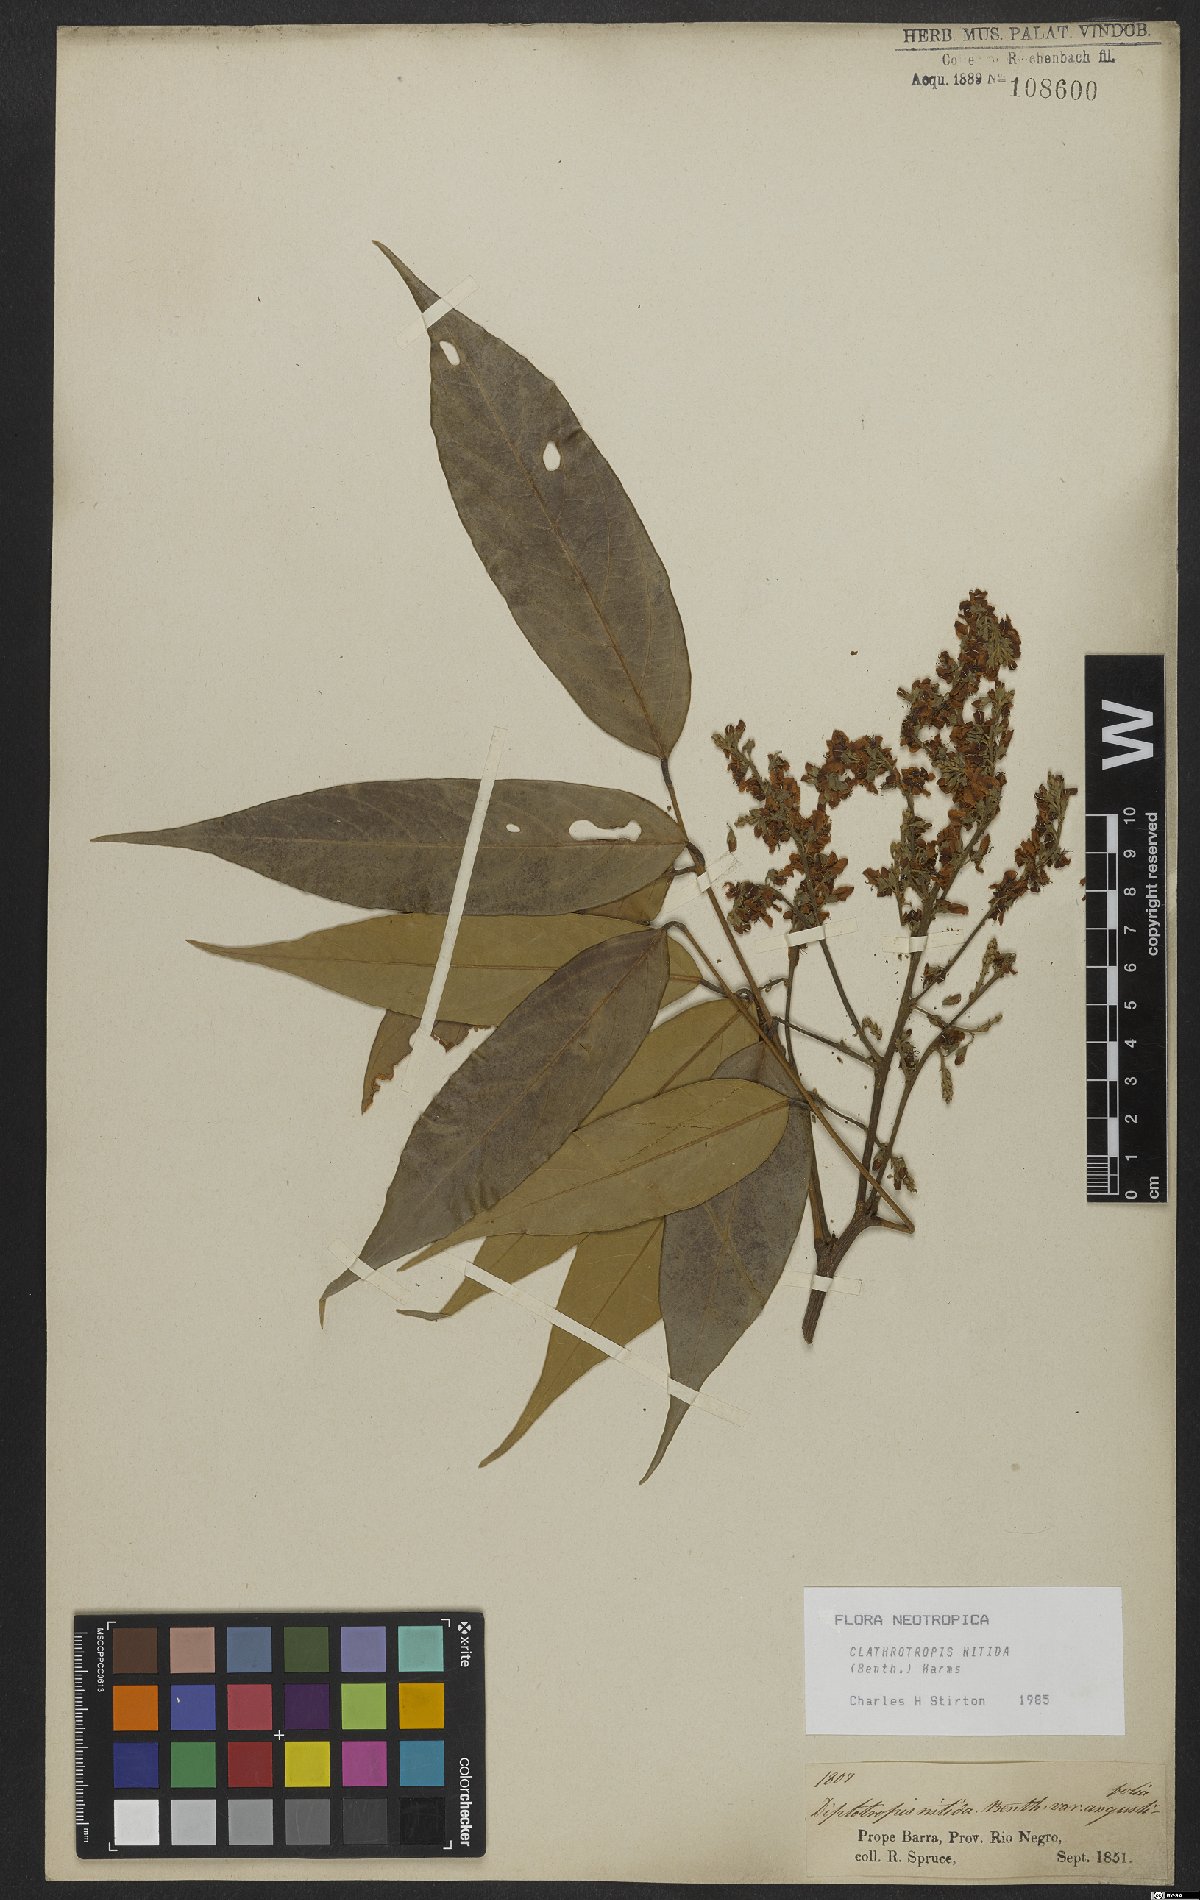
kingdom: Plantae
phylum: Tracheophyta
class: Magnoliopsida
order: Fabales
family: Fabaceae
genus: Clathrotropis
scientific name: Clathrotropis nitida
